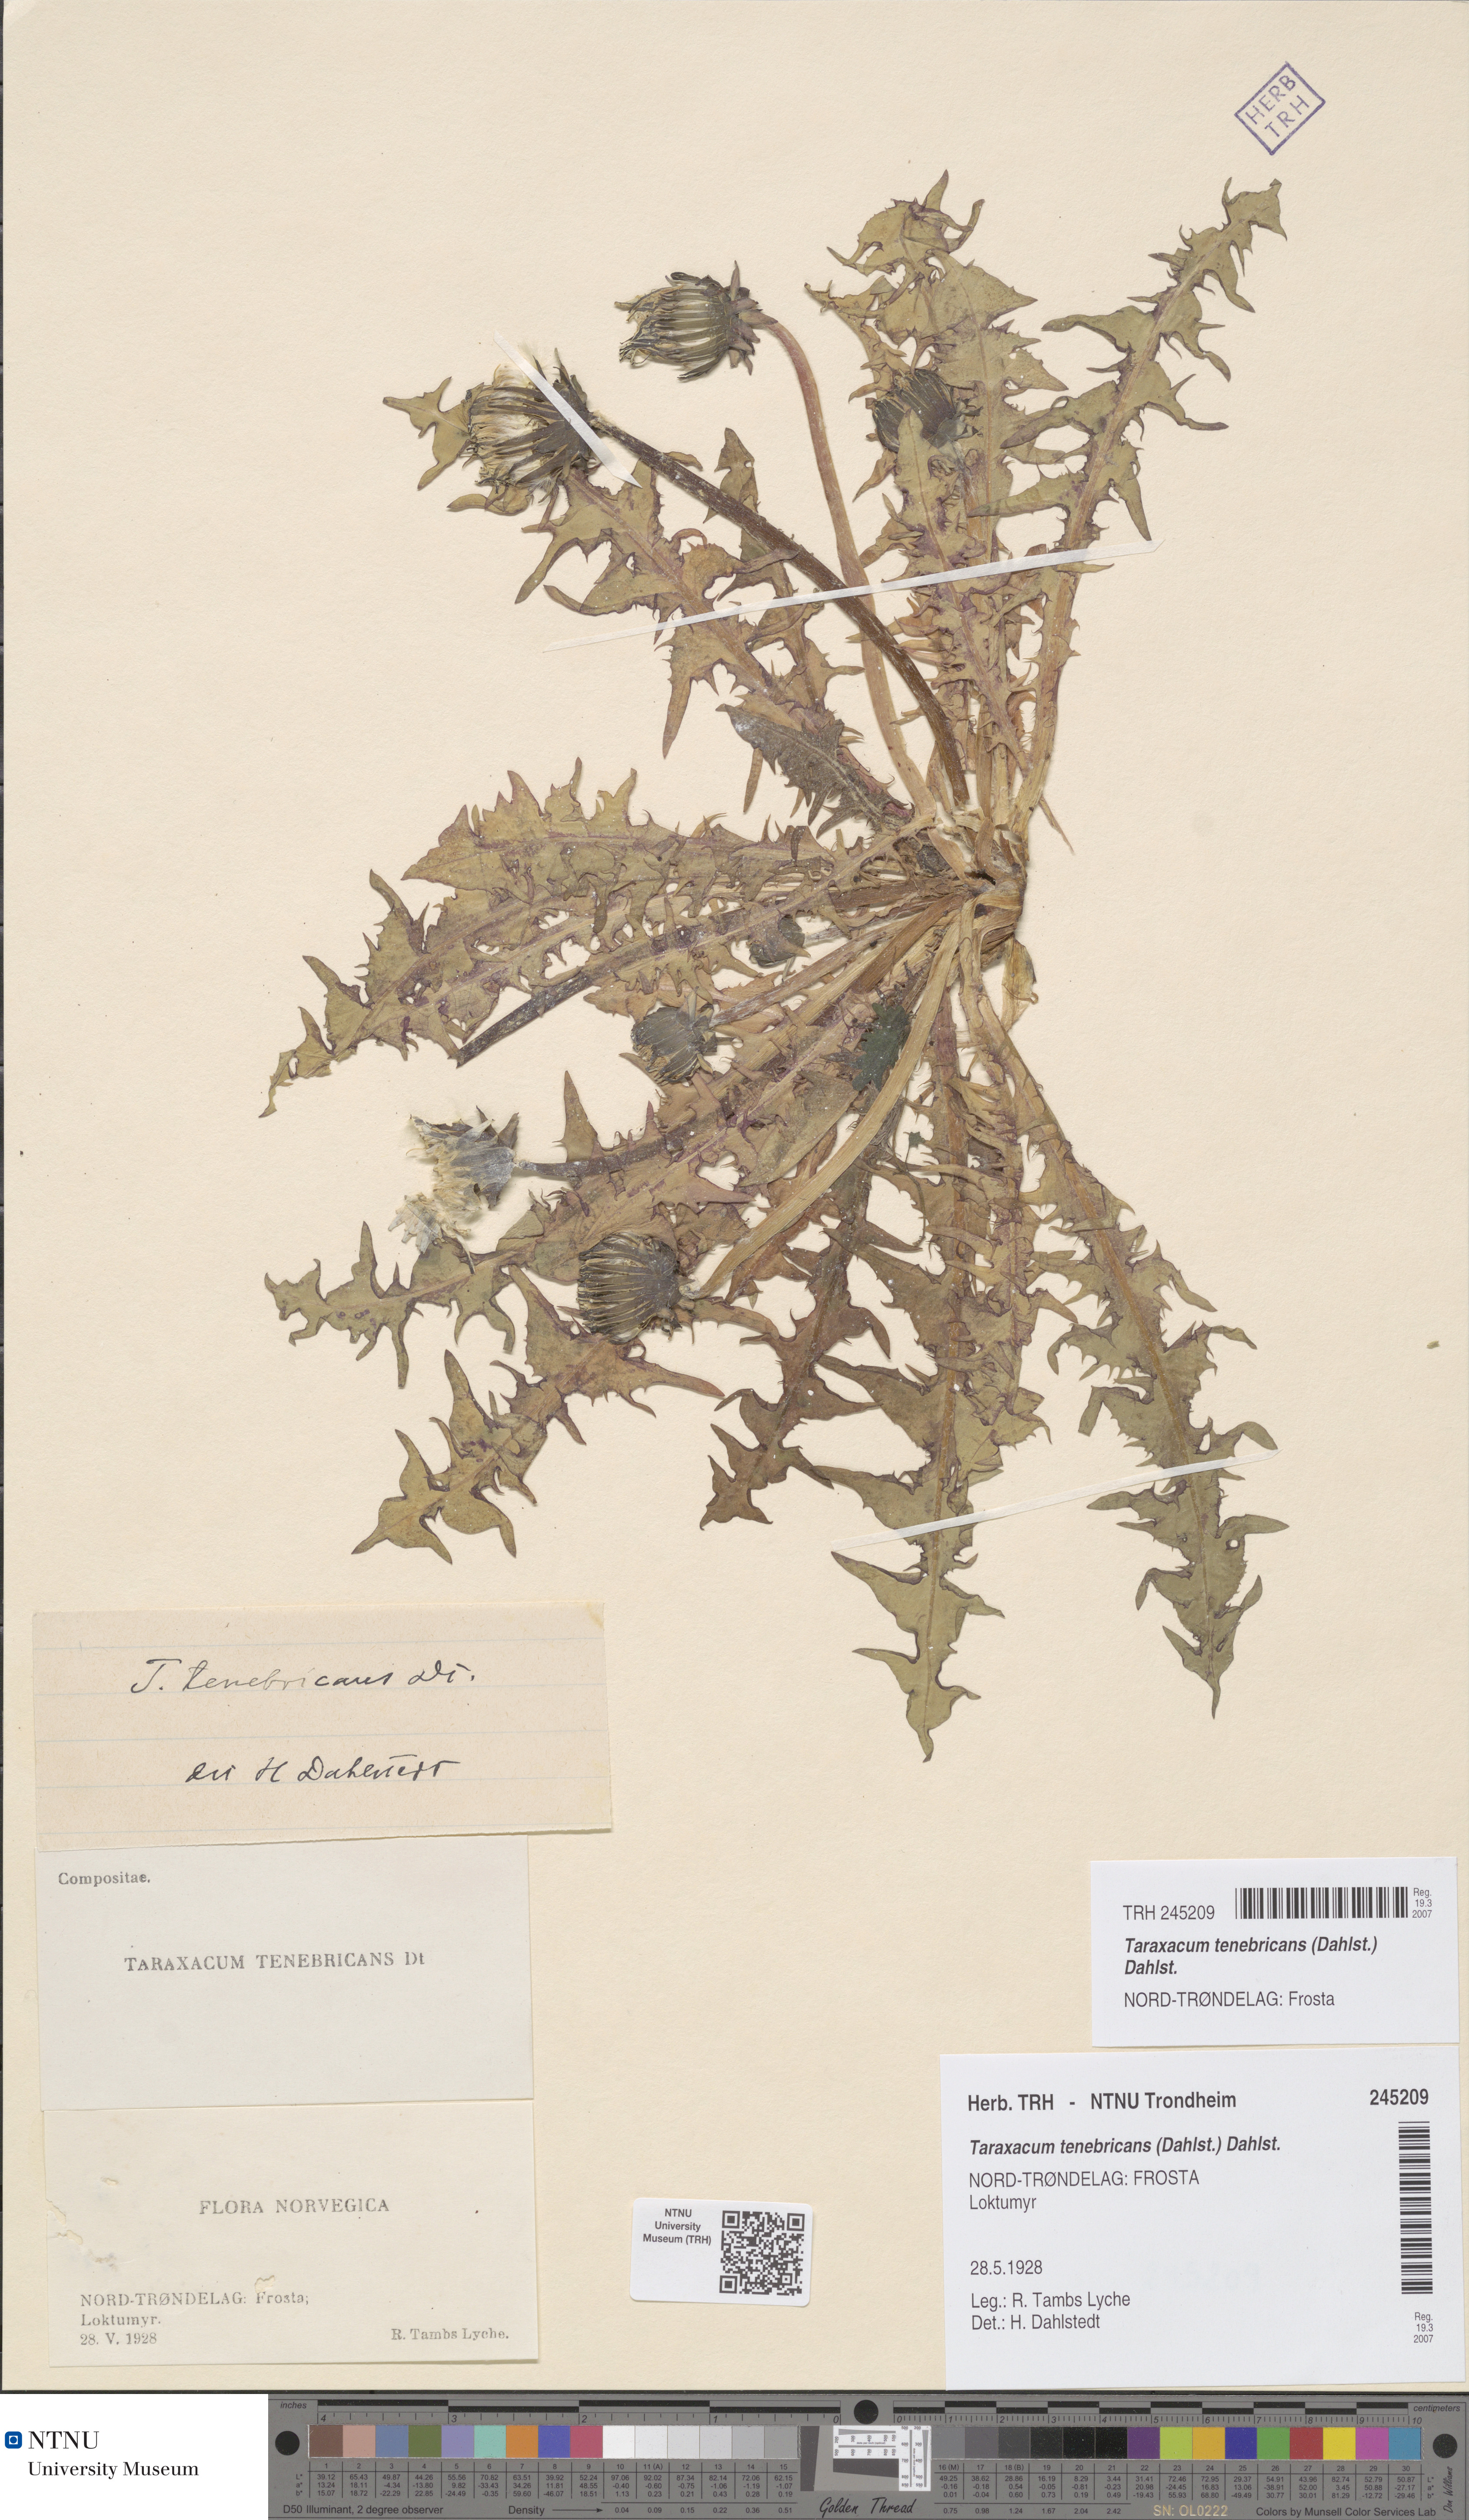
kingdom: Plantae
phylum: Tracheophyta
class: Magnoliopsida
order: Asterales
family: Asteraceae
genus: Taraxacum
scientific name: Taraxacum tenebricans
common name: Shiny-leaved dandelion
